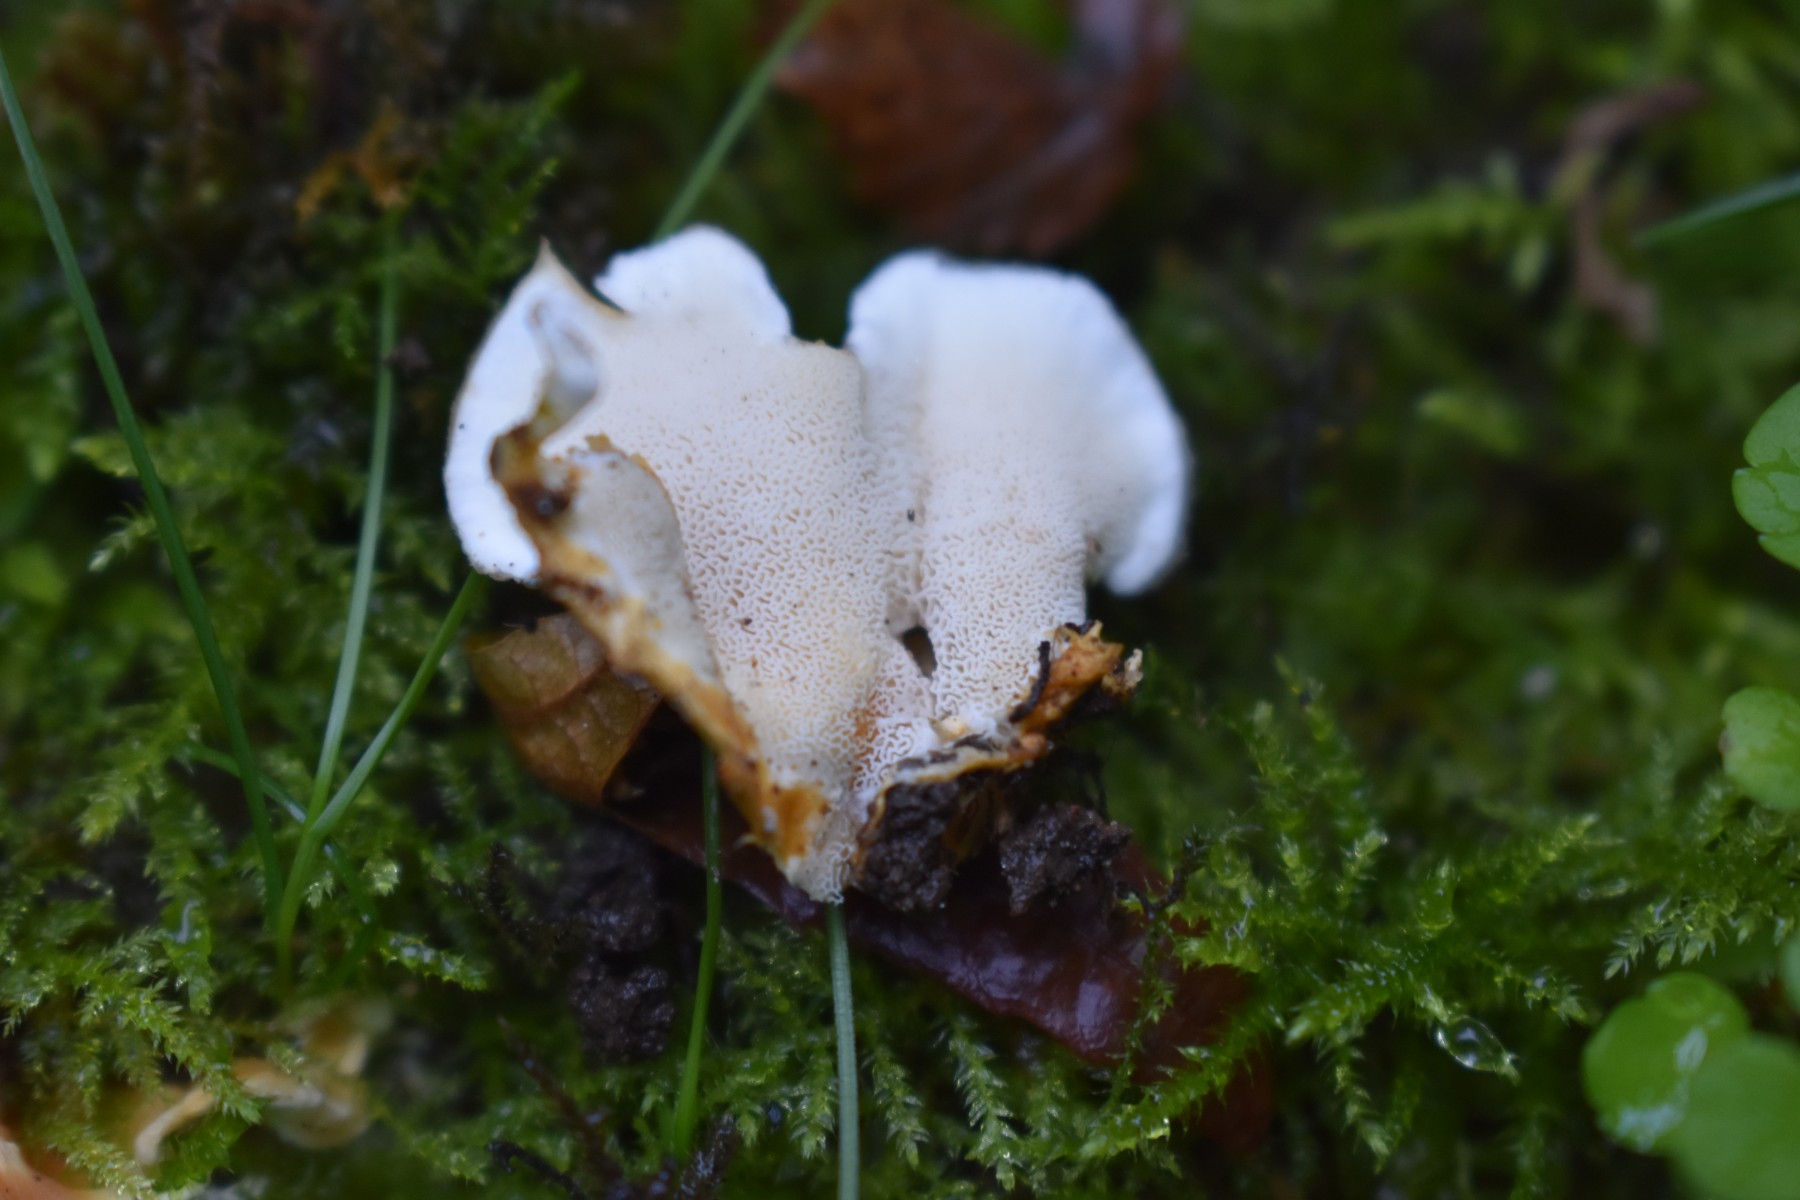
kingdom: Fungi
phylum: Basidiomycota
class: Agaricomycetes
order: Polyporales
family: Steccherinaceae
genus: Loweomyces
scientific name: Loweomyces wynneae
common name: krybende blødporesvamp
